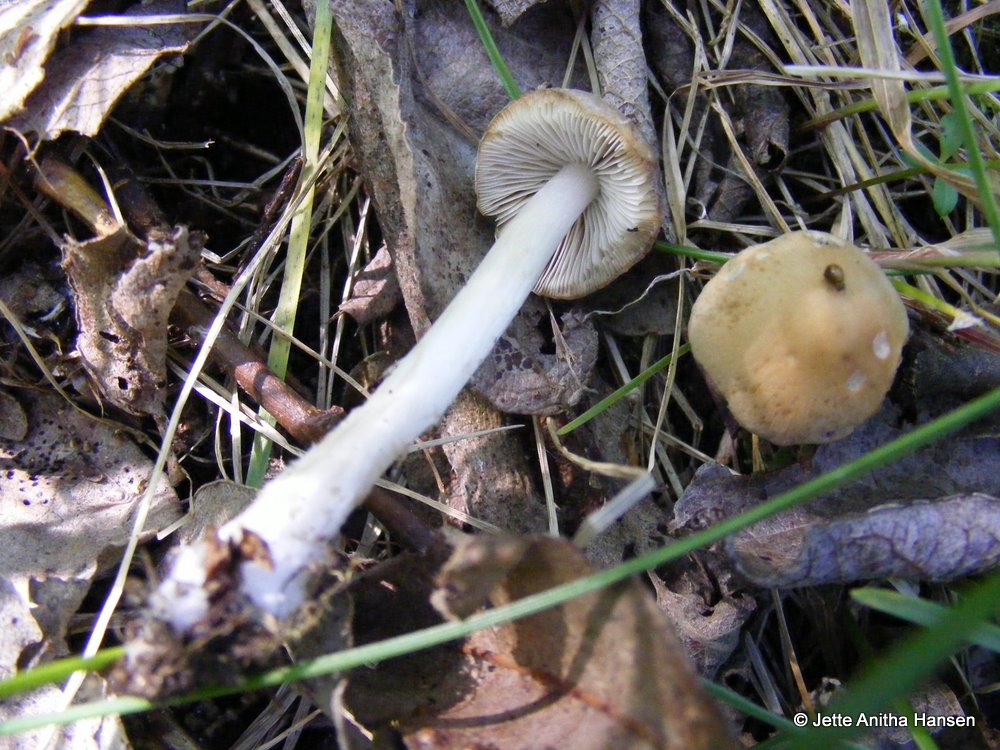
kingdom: Fungi
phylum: Basidiomycota
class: Agaricomycetes
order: Agaricales
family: Psathyrellaceae
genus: Psathyrella
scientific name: Psathyrella spadiceogrisea
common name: gråbrun mørkhat
